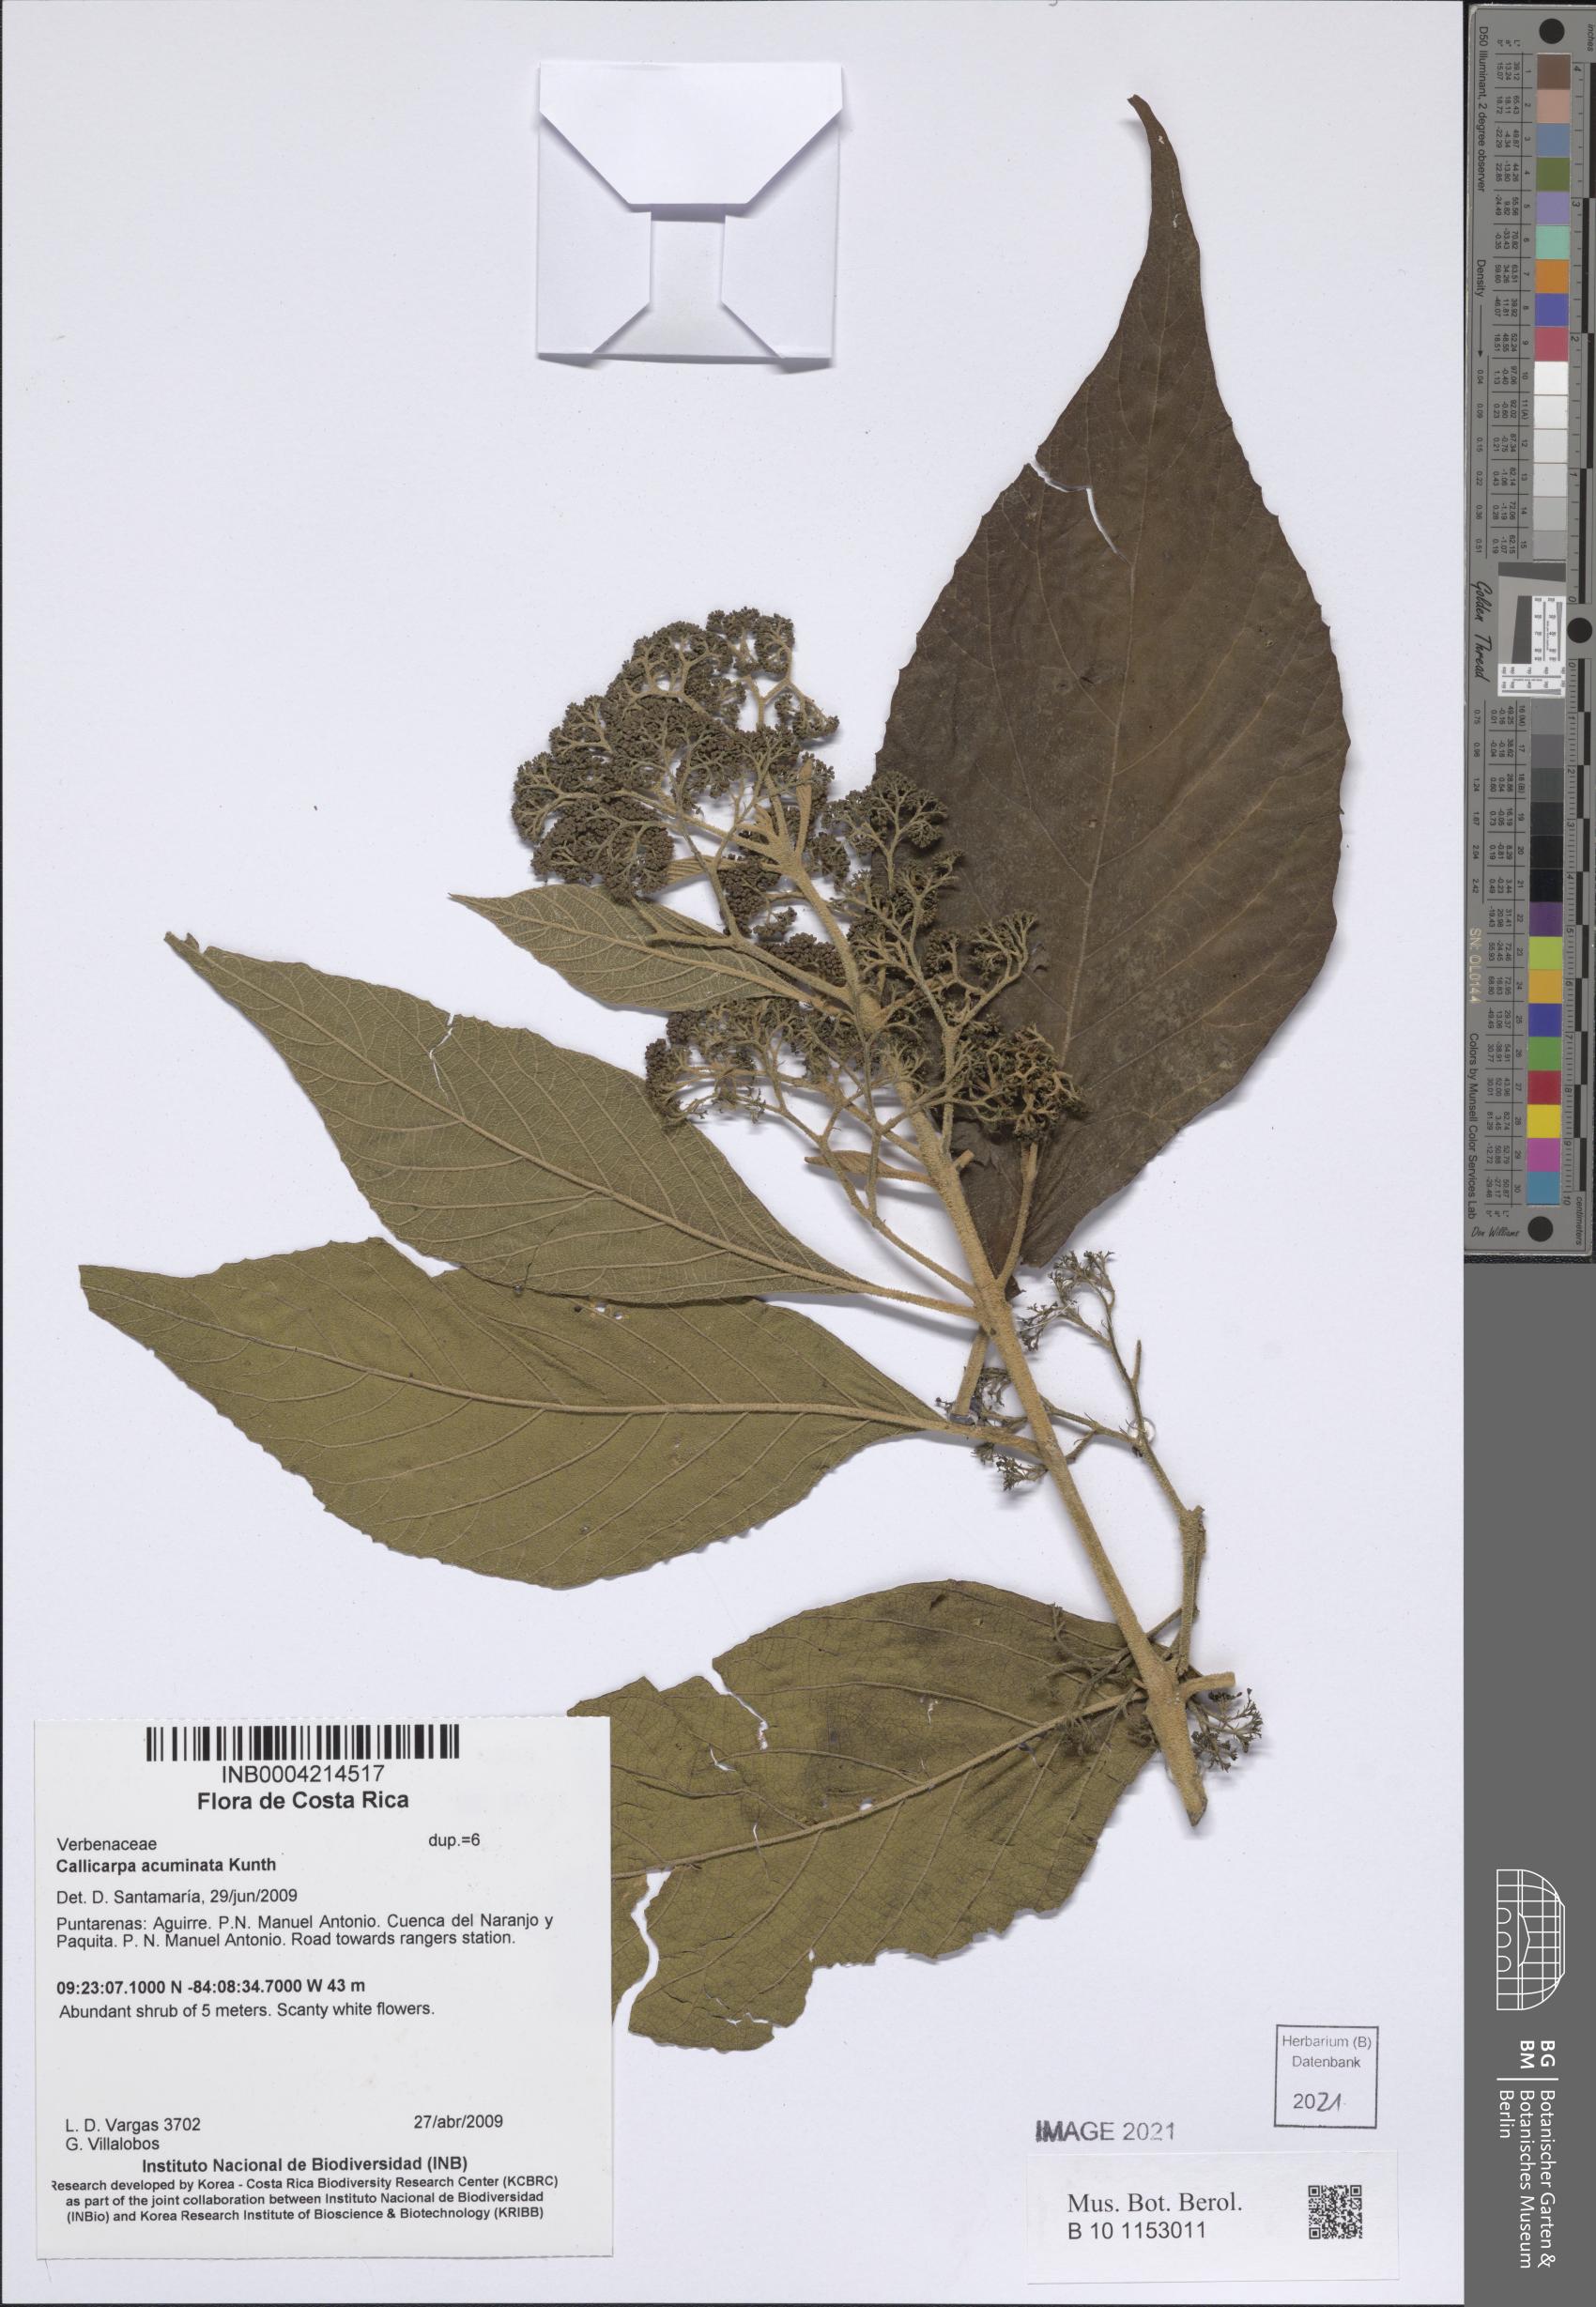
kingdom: Plantae
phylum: Tracheophyta
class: Magnoliopsida
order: Lamiales
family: Lamiaceae
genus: Callicarpa
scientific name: Callicarpa acuminata
